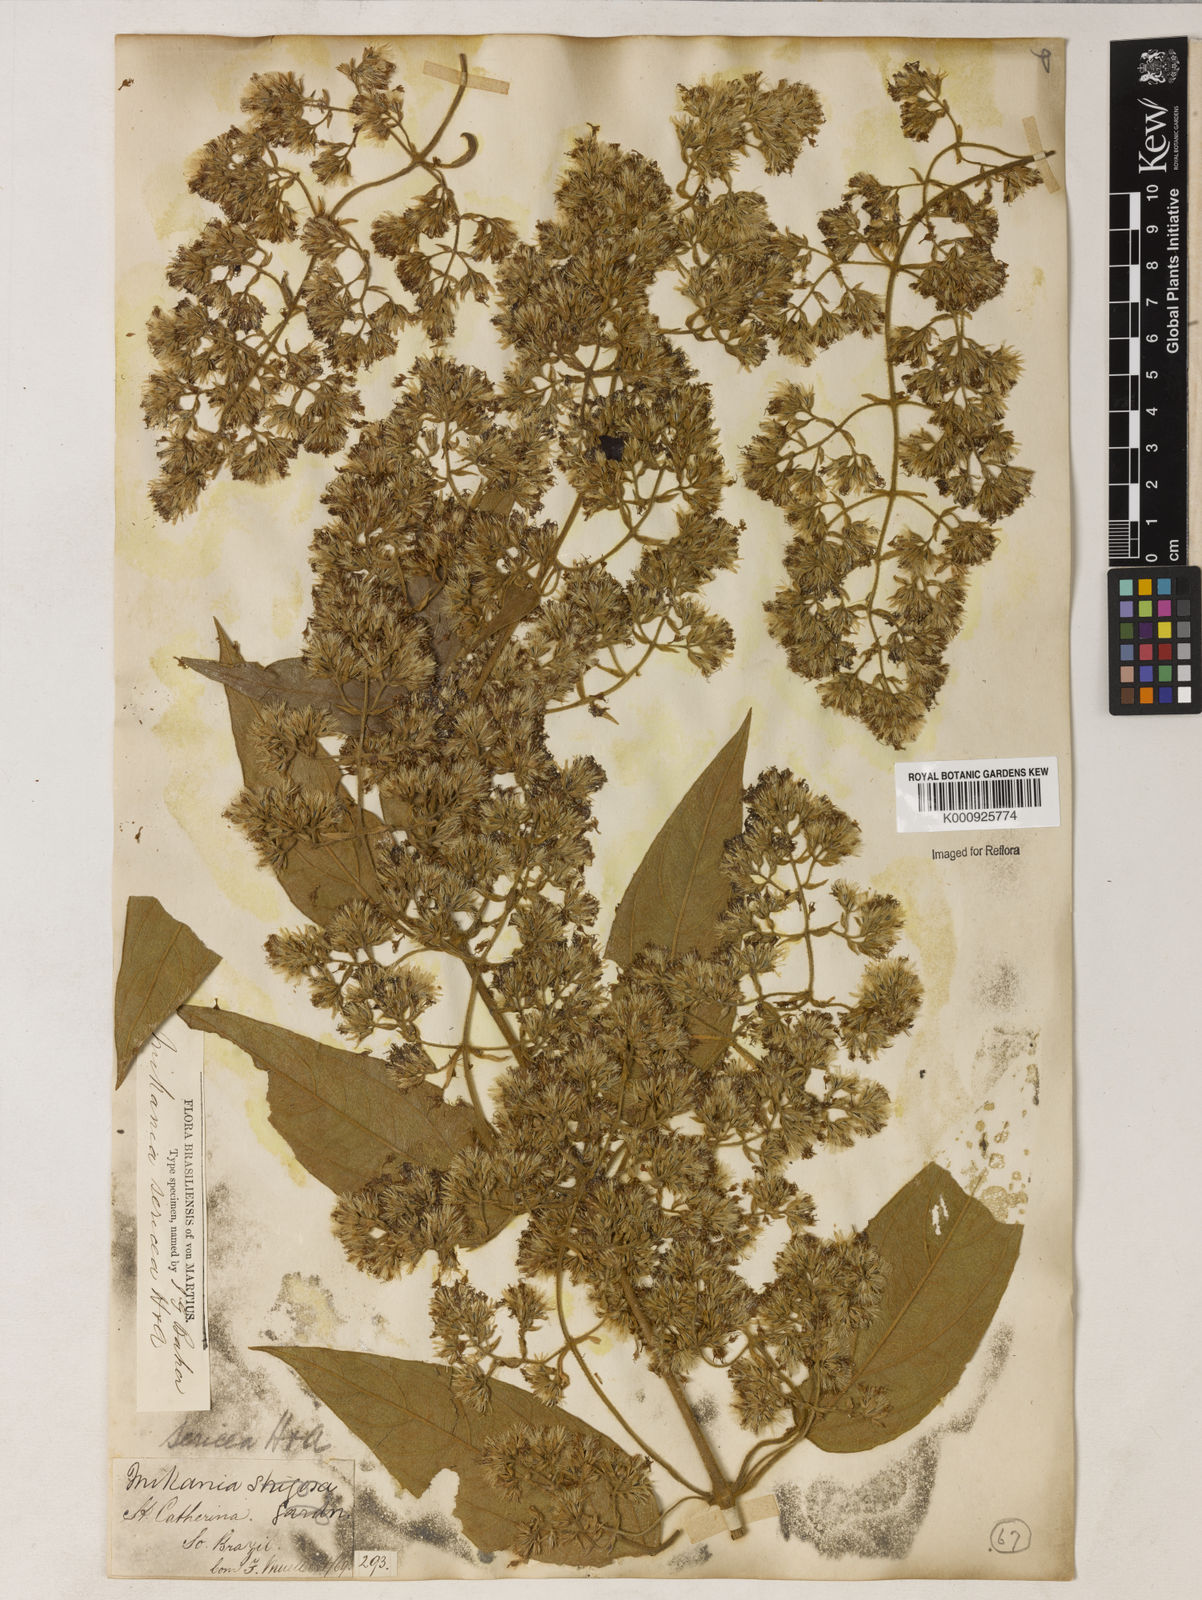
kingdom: Plantae
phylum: Tracheophyta
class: Magnoliopsida
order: Asterales
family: Asteraceae
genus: Mikania
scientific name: Mikania sericea
